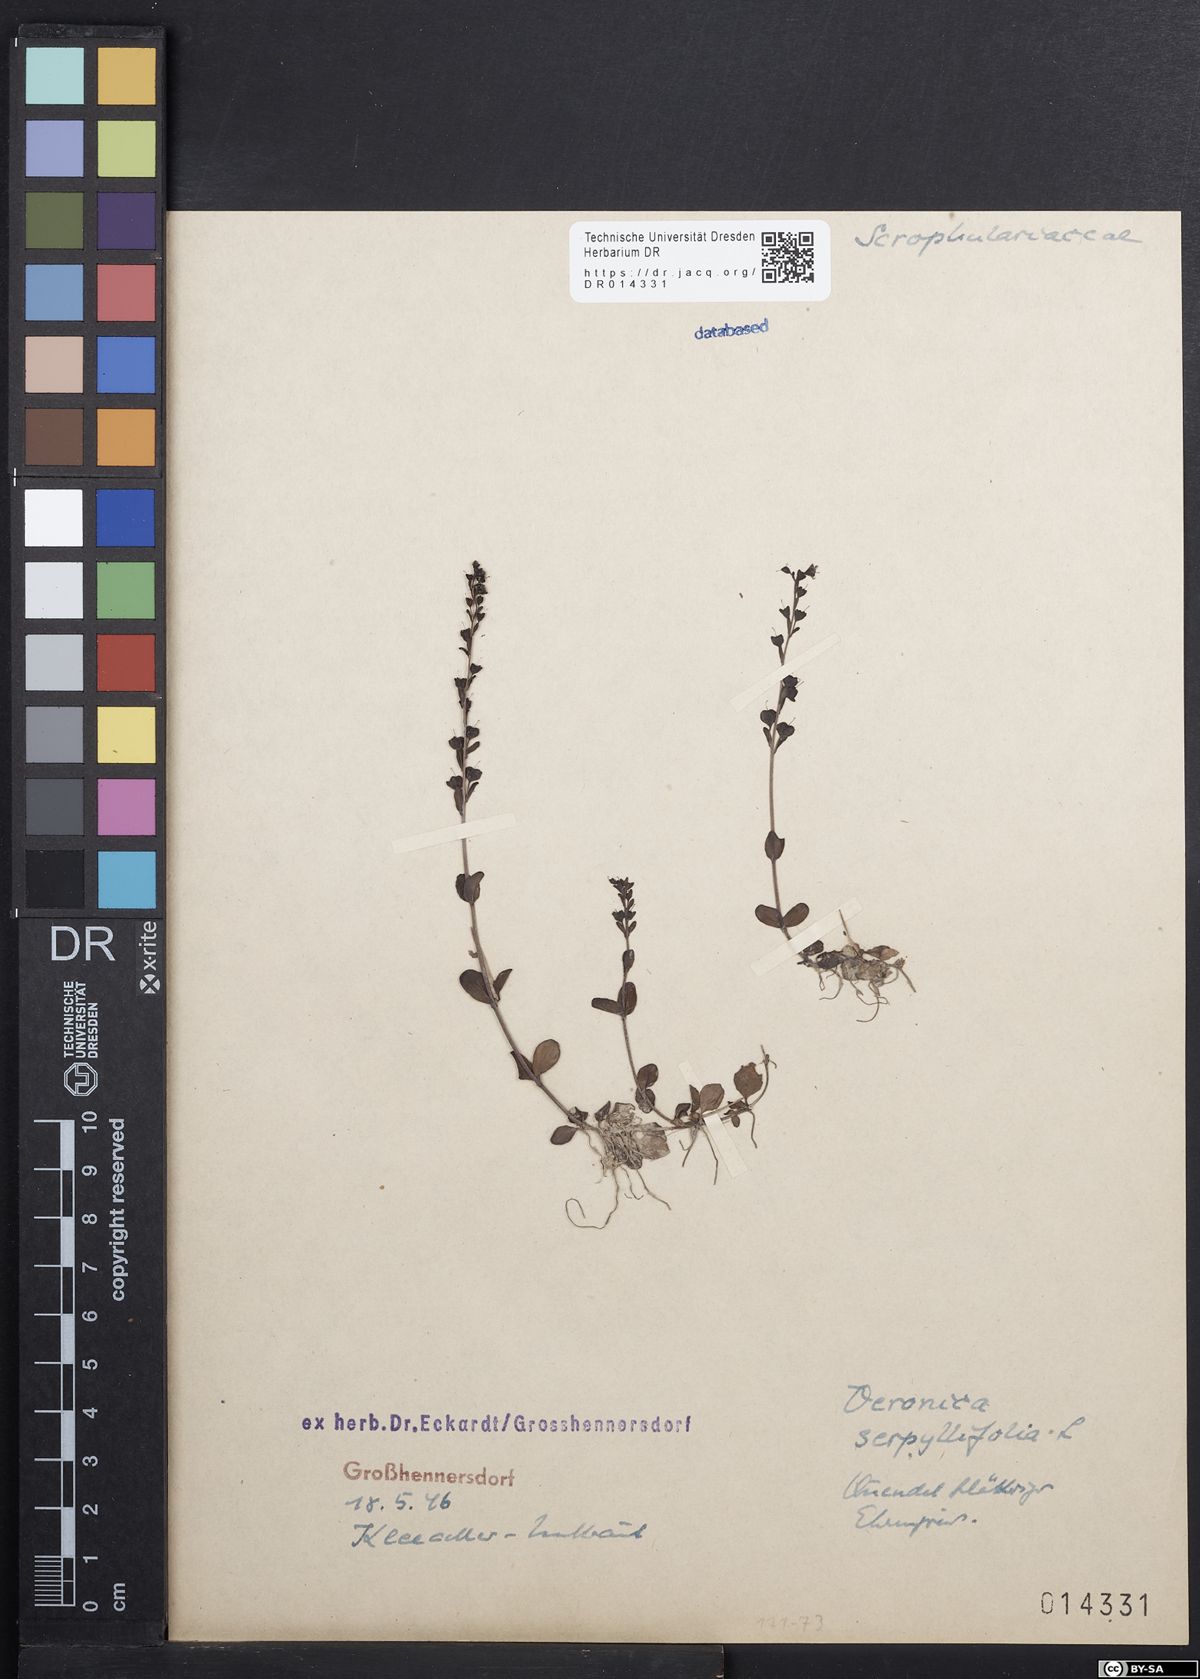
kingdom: Plantae
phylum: Tracheophyta
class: Magnoliopsida
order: Lamiales
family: Plantaginaceae
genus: Veronica
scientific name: Veronica serpyllifolia
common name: Thyme-leaved speedwell
